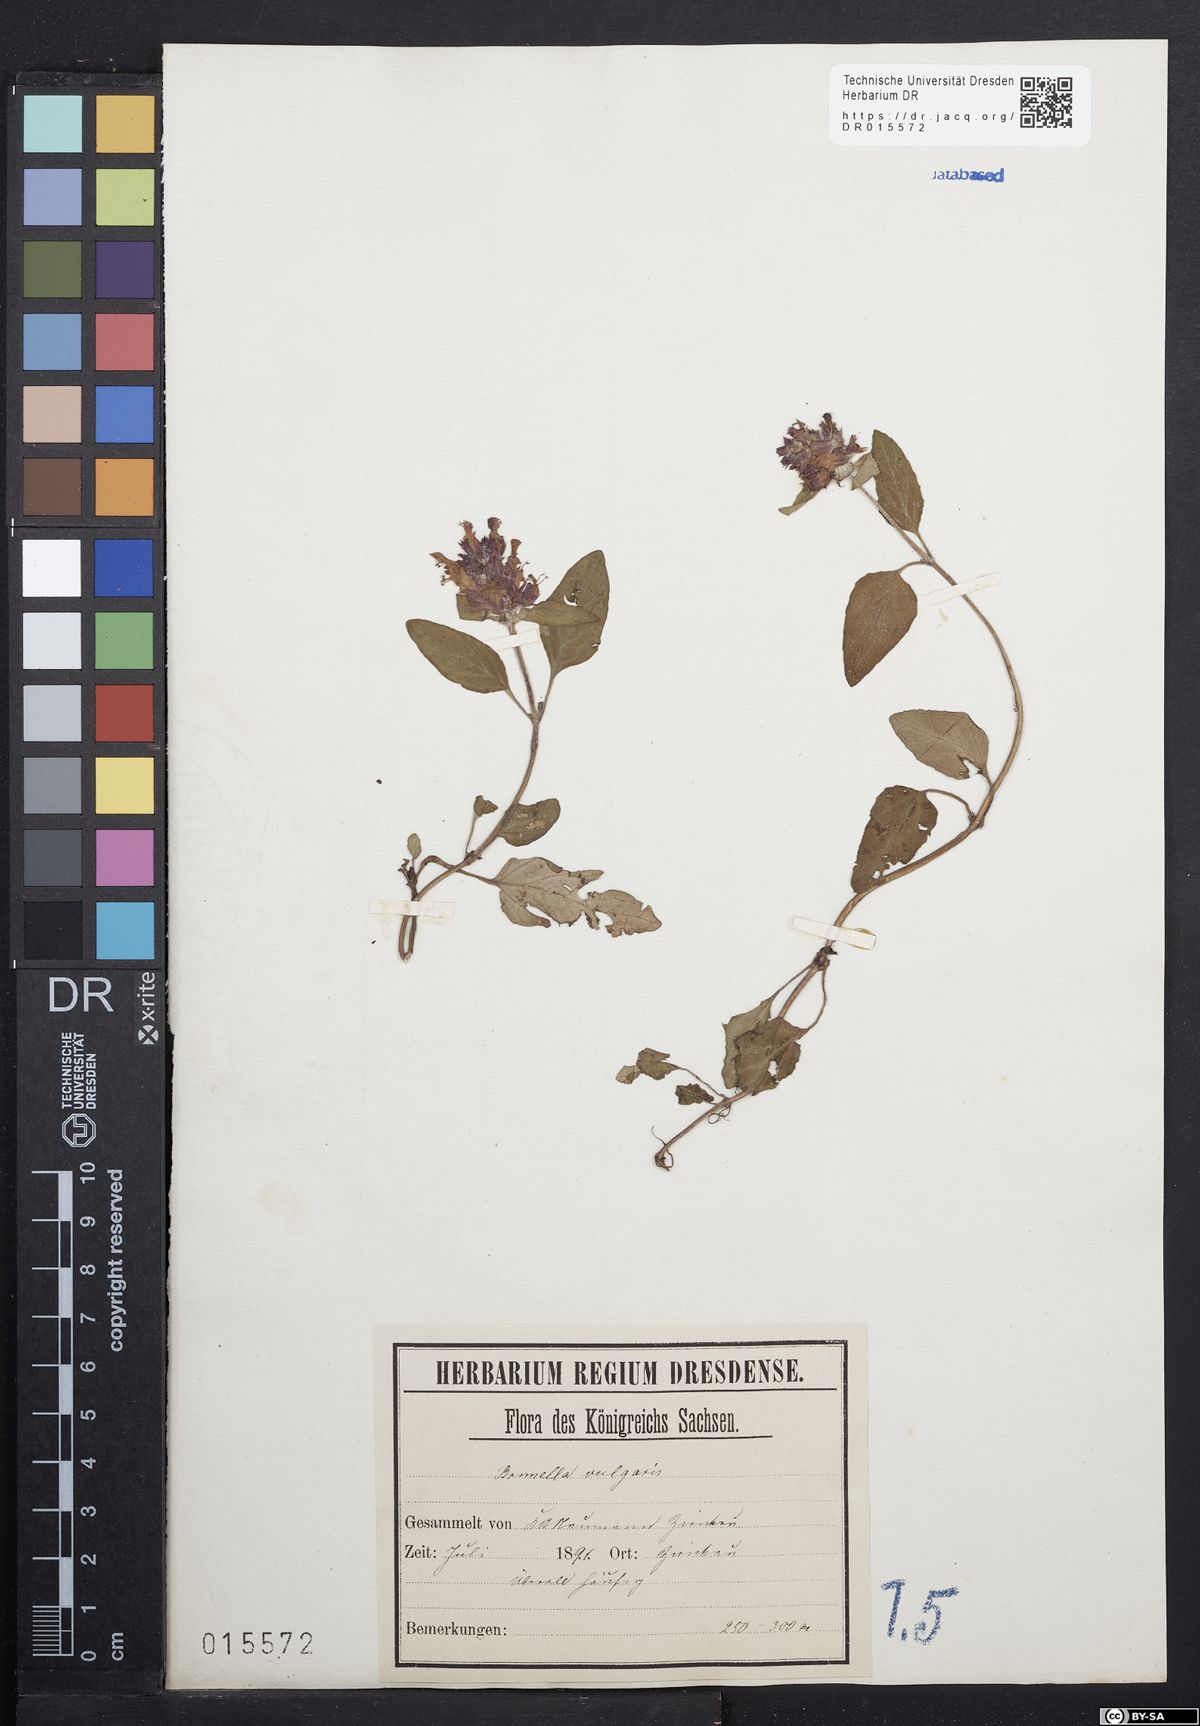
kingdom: Plantae
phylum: Tracheophyta
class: Magnoliopsida
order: Lamiales
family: Lamiaceae
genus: Prunella
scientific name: Prunella vulgaris
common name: Heal-all
